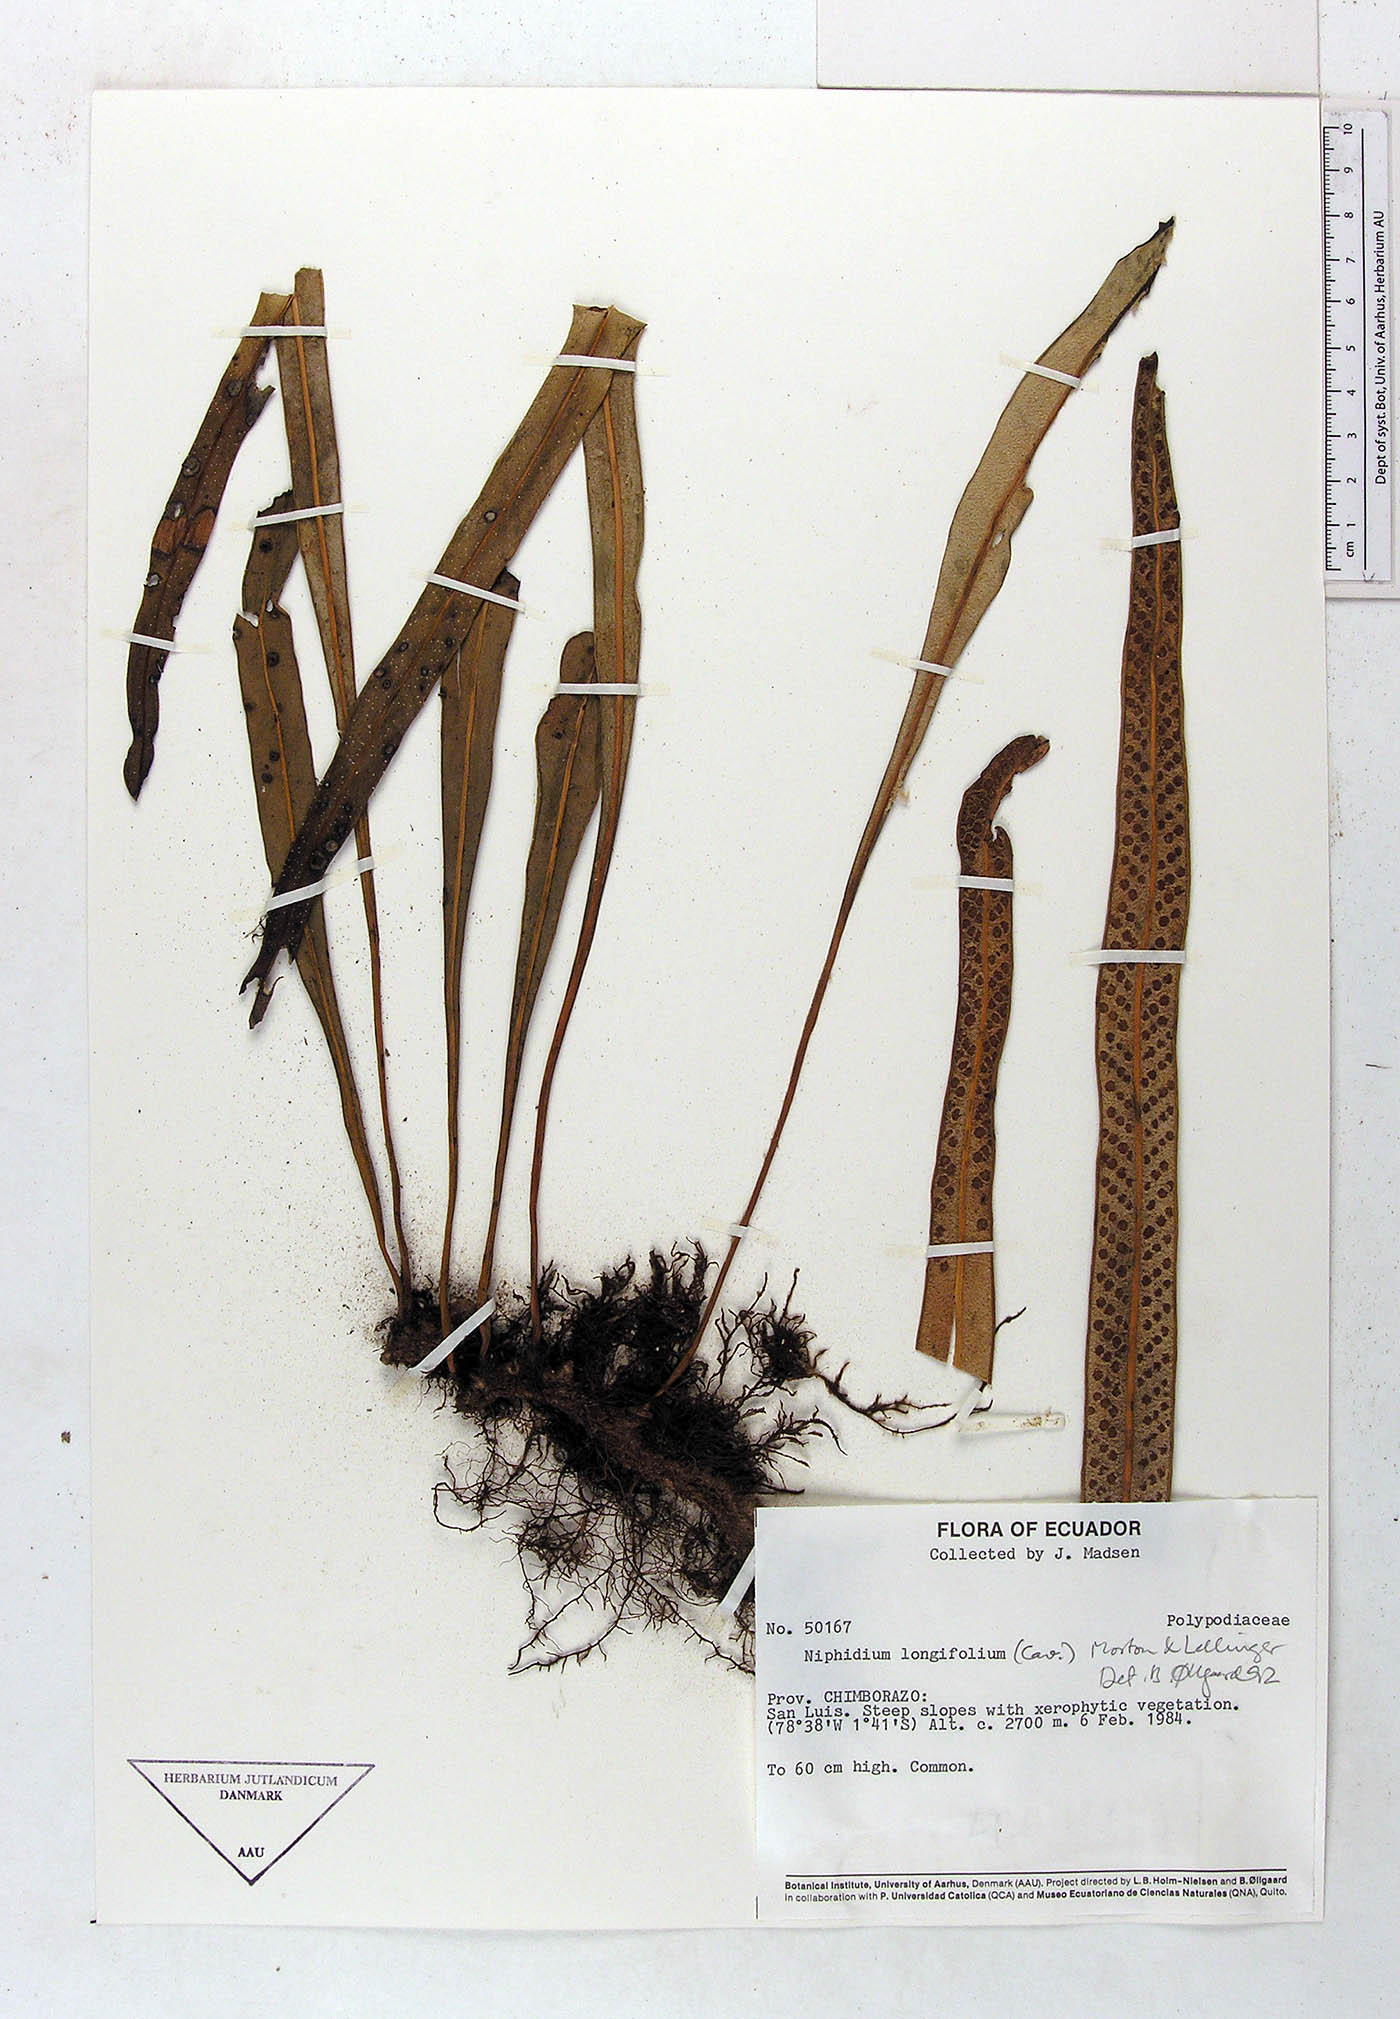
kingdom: Plantae
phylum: Tracheophyta
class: Polypodiopsida
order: Polypodiales
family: Polypodiaceae
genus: Niphidium
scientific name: Niphidium longifolium
